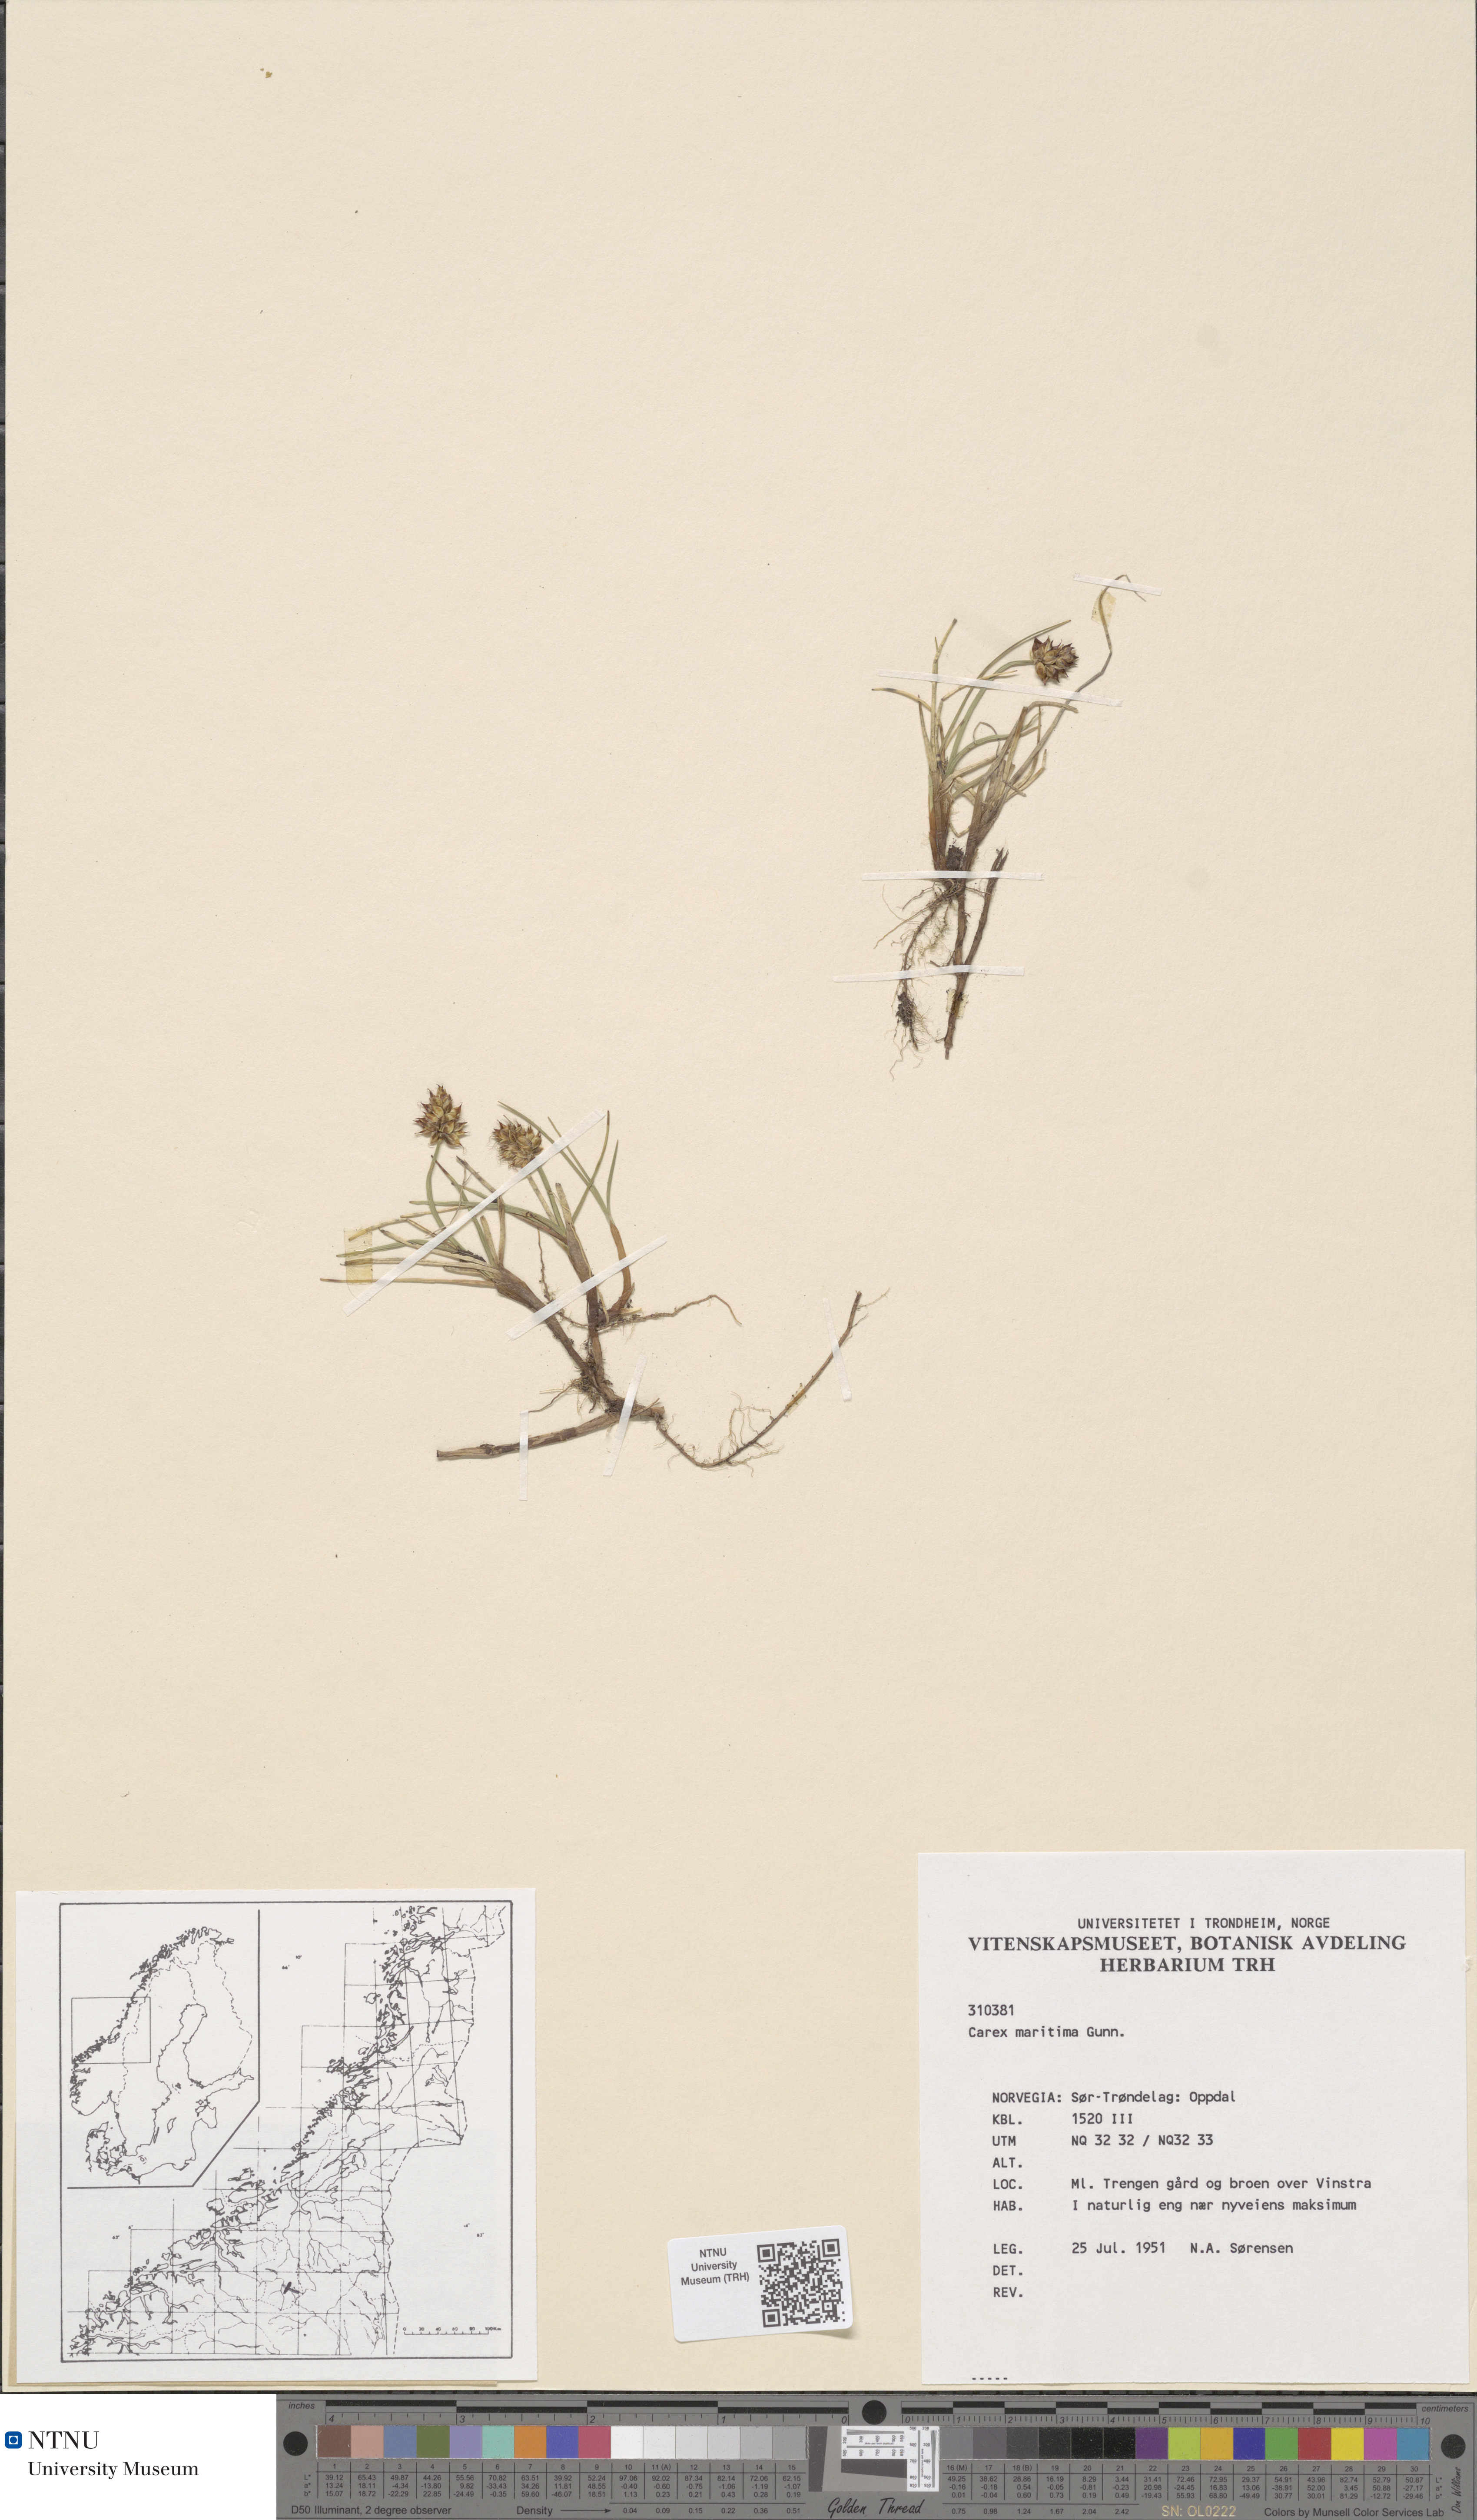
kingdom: Plantae
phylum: Tracheophyta
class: Liliopsida
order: Poales
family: Cyperaceae
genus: Carex
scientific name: Carex maritima
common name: Curved sedge
